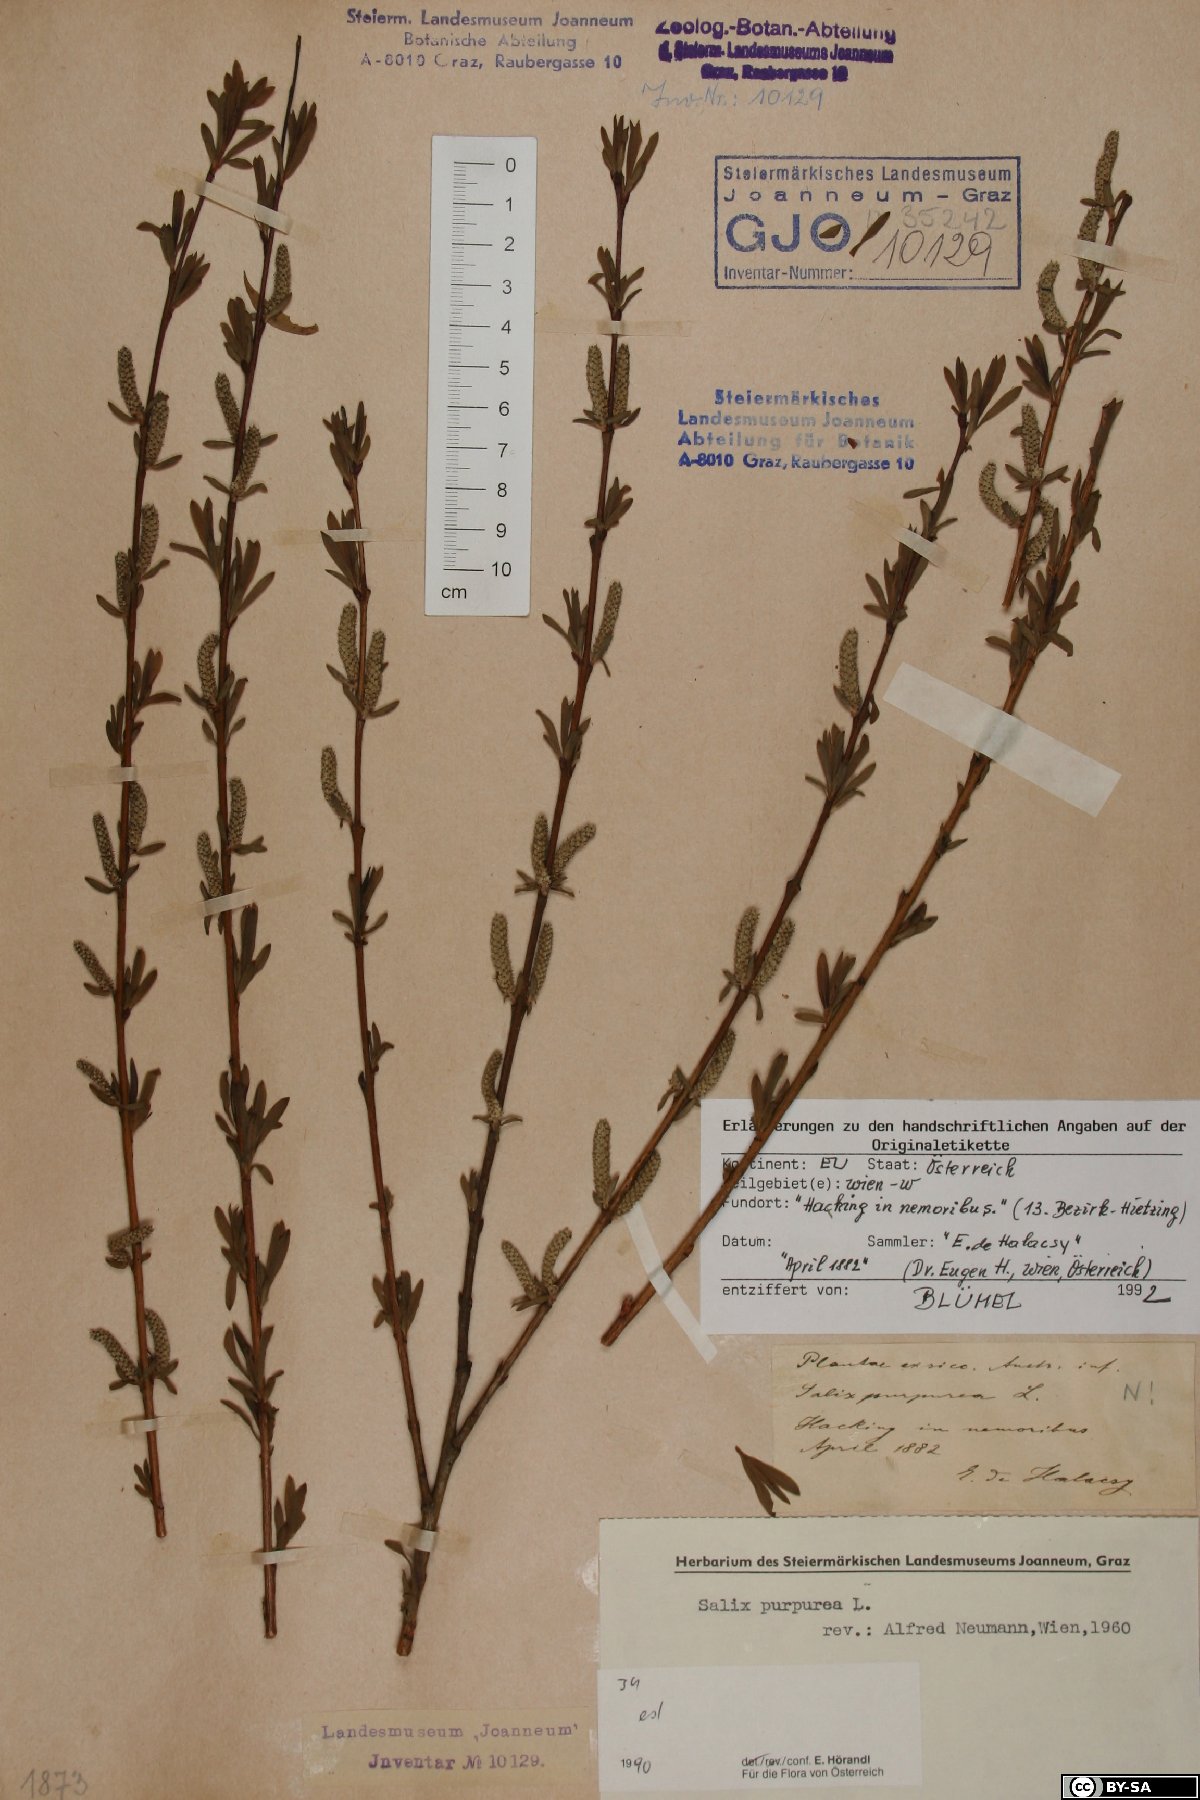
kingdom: Plantae
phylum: Tracheophyta
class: Magnoliopsida
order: Malpighiales
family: Salicaceae
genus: Salix
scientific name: Salix purpurea
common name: Purple willow
